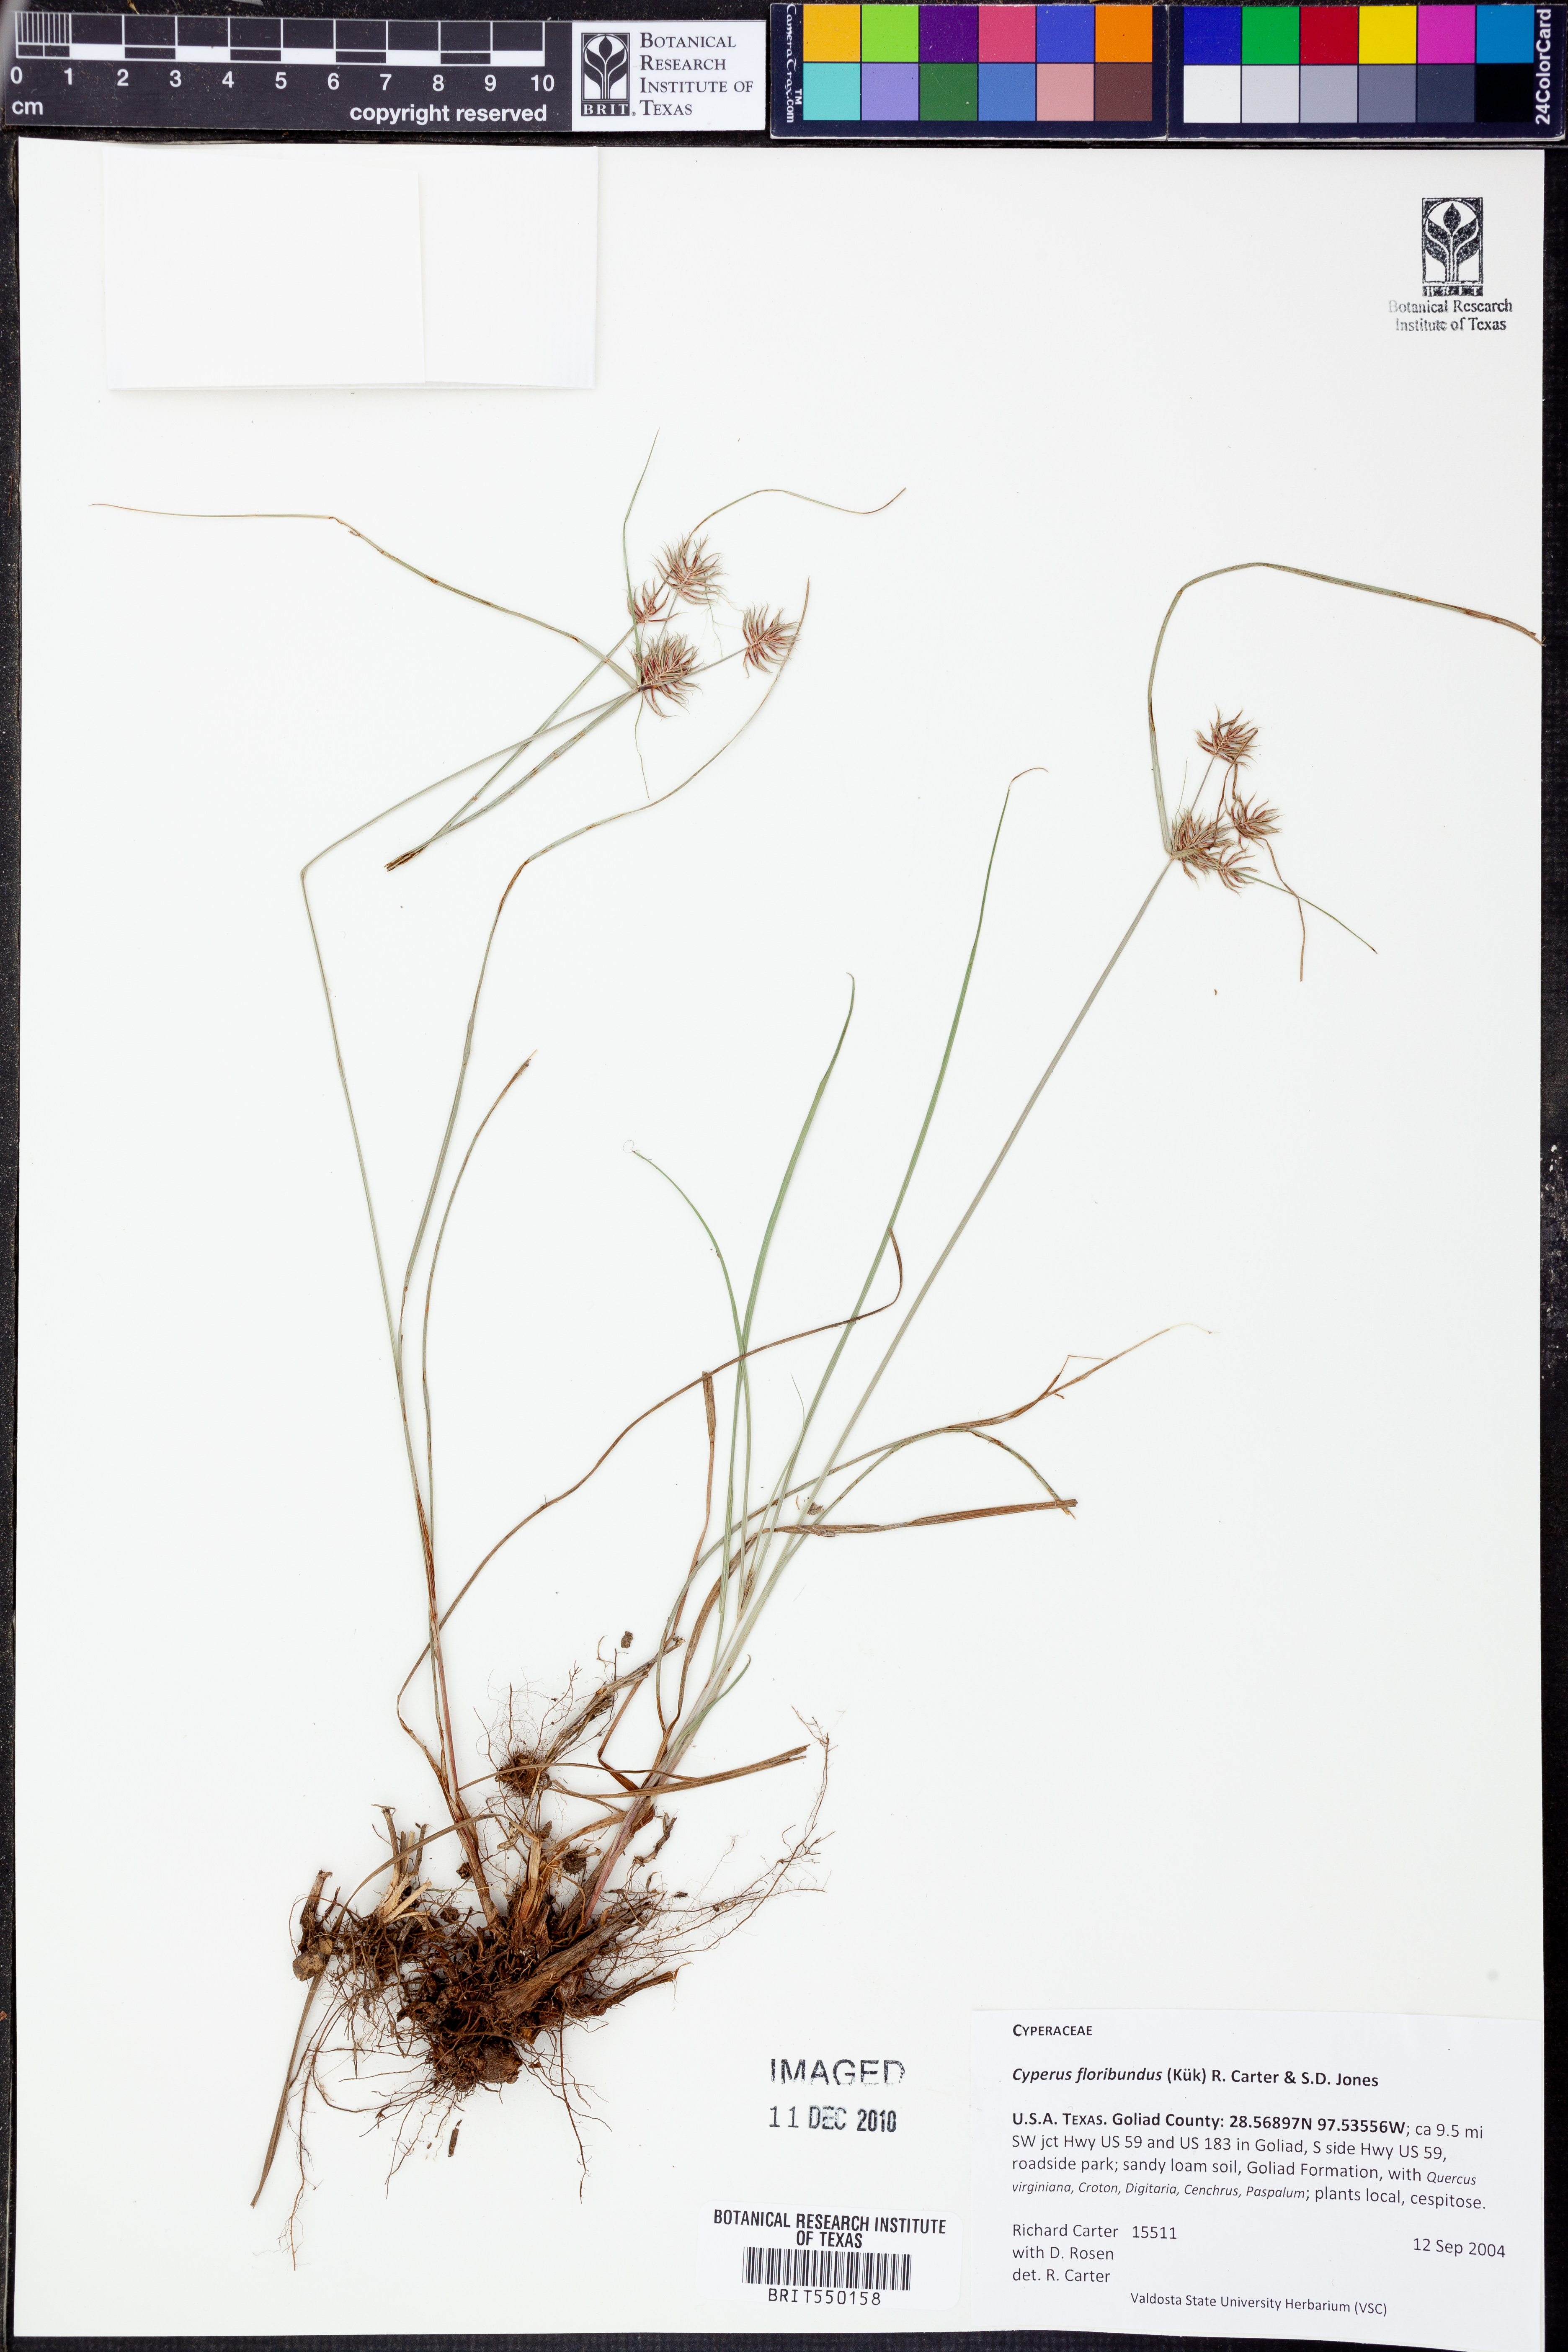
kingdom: Plantae
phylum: Tracheophyta
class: Liliopsida
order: Poales
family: Cyperaceae
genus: Cyperus
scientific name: Cyperus floribundus
